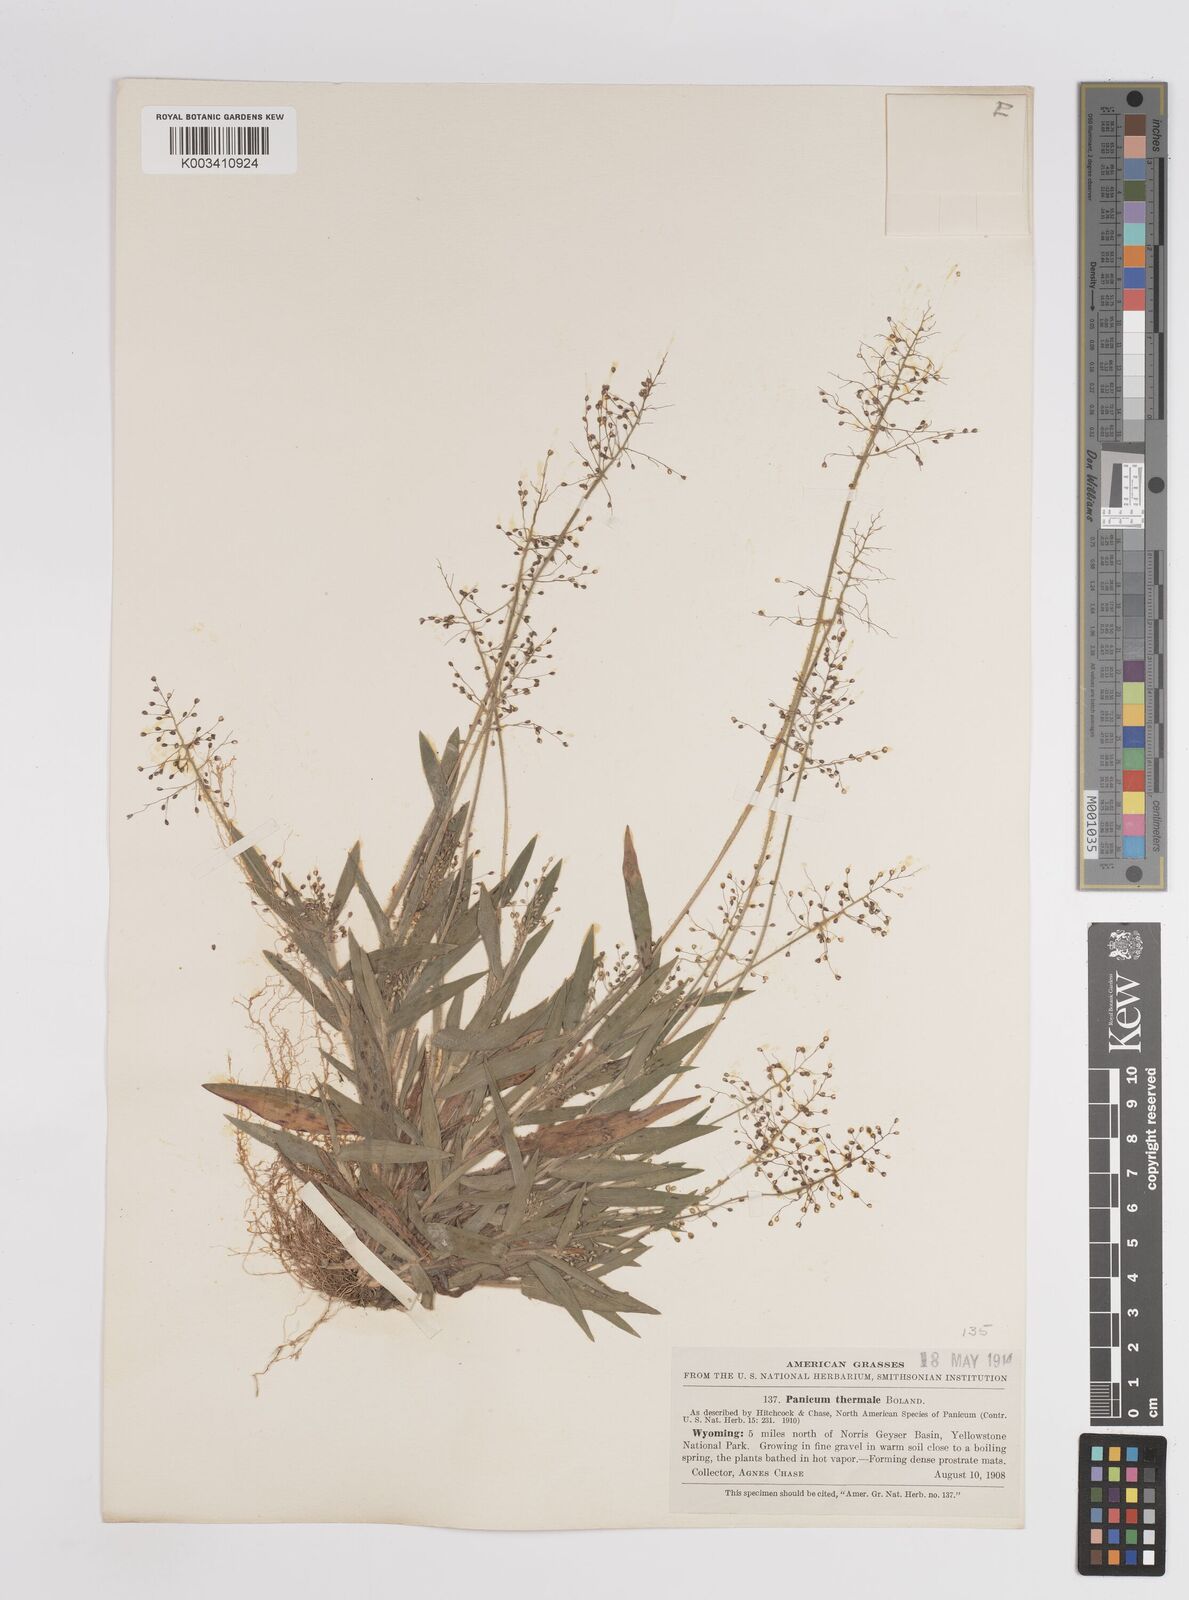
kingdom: Plantae
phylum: Tracheophyta
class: Liliopsida
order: Poales
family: Poaceae
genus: Dichanthelium
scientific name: Dichanthelium thermale
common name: Geyser panicgrass
